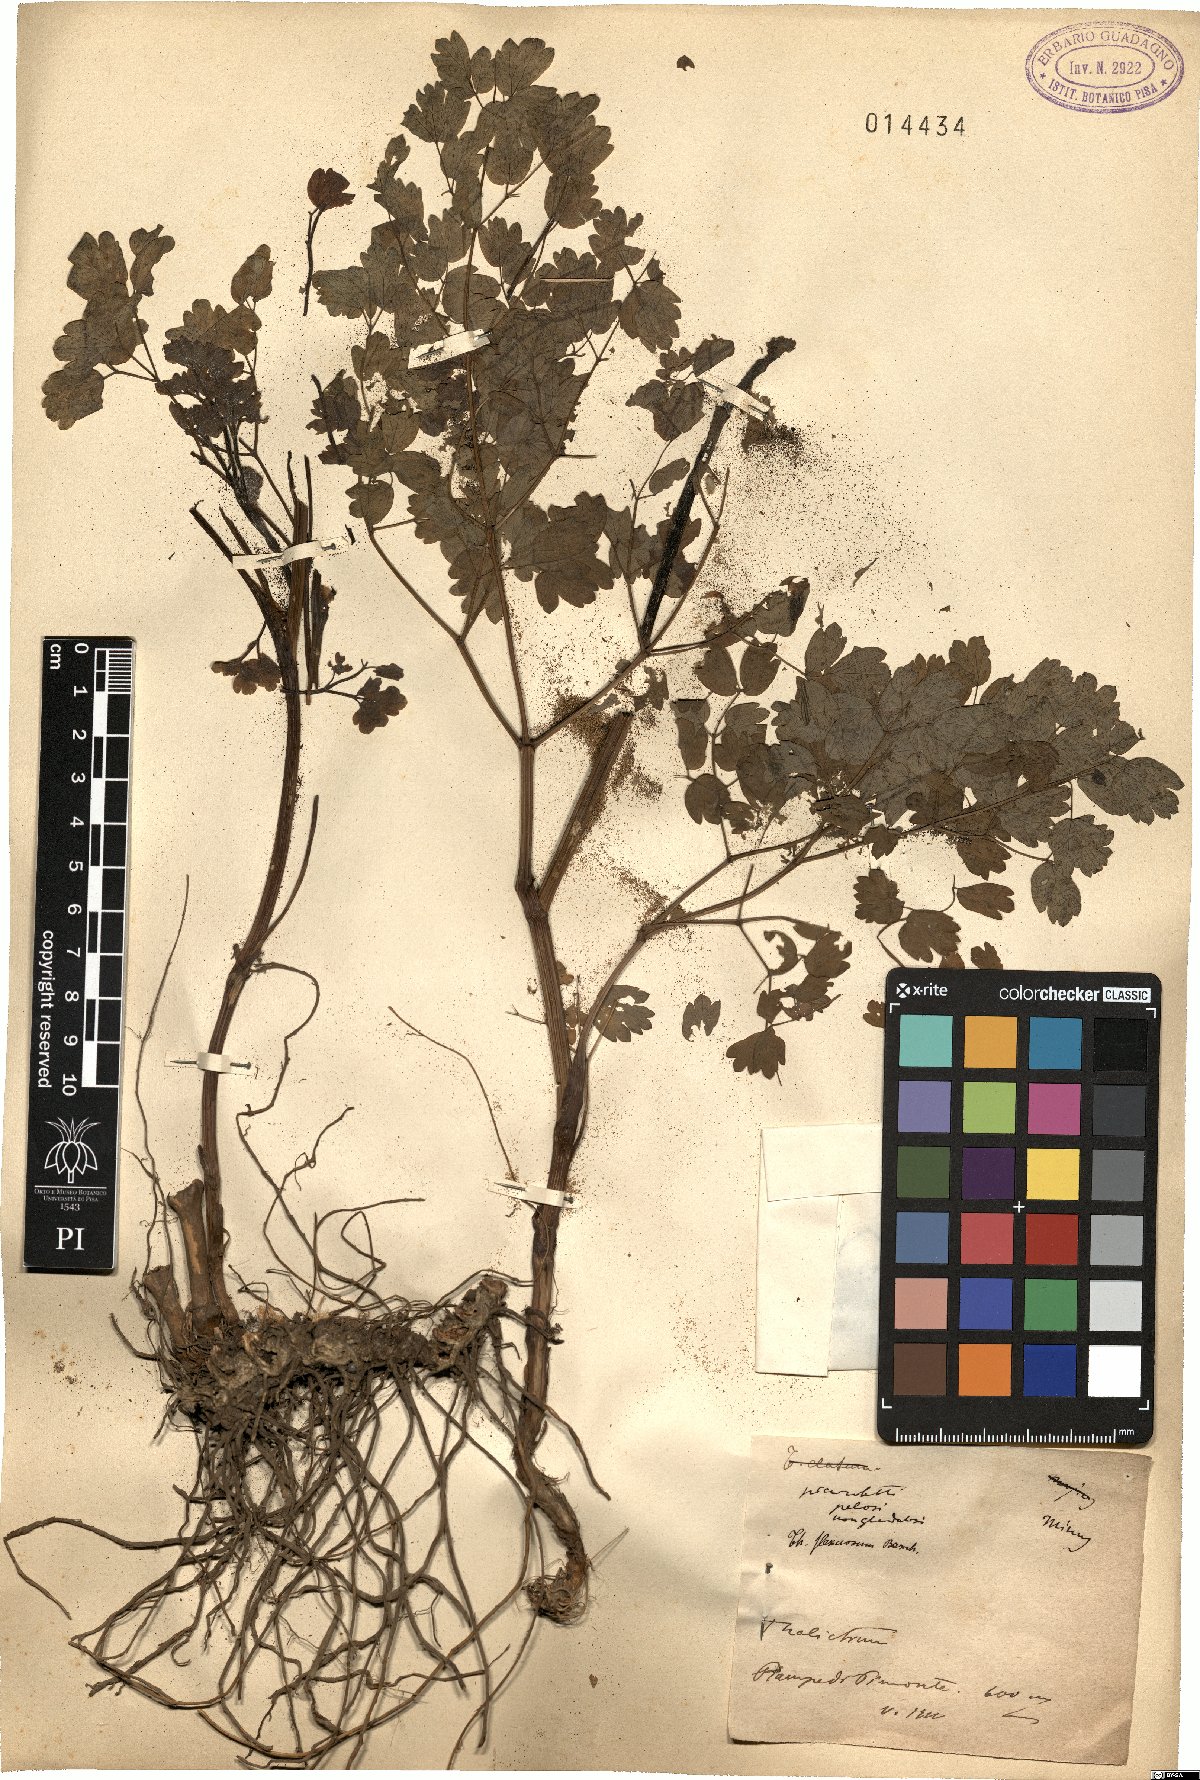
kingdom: Plantae
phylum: Tracheophyta
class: Magnoliopsida
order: Ranunculales
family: Ranunculaceae
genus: Thalictrum
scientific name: Thalictrum minus
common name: Lesser meadow-rue
